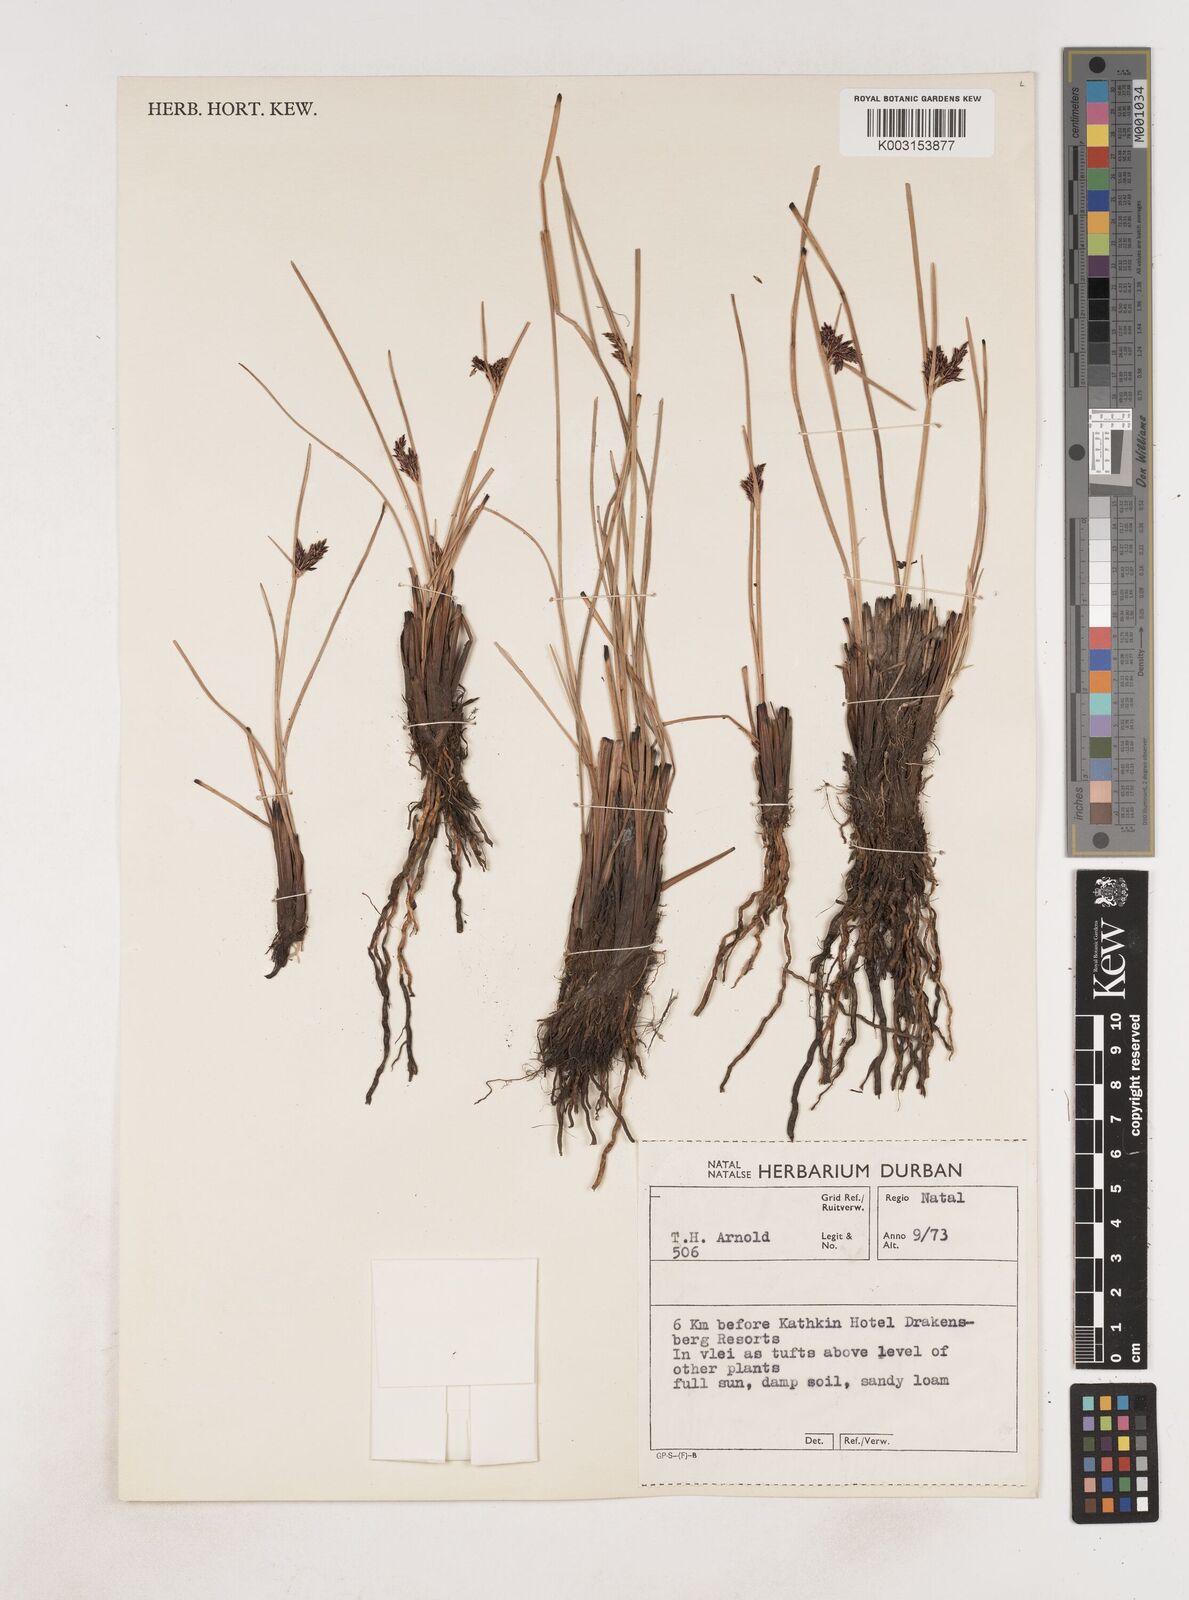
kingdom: Plantae
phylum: Tracheophyta
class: Liliopsida
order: Poales
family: Cyperaceae
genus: Cyperus
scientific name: Cyperus
